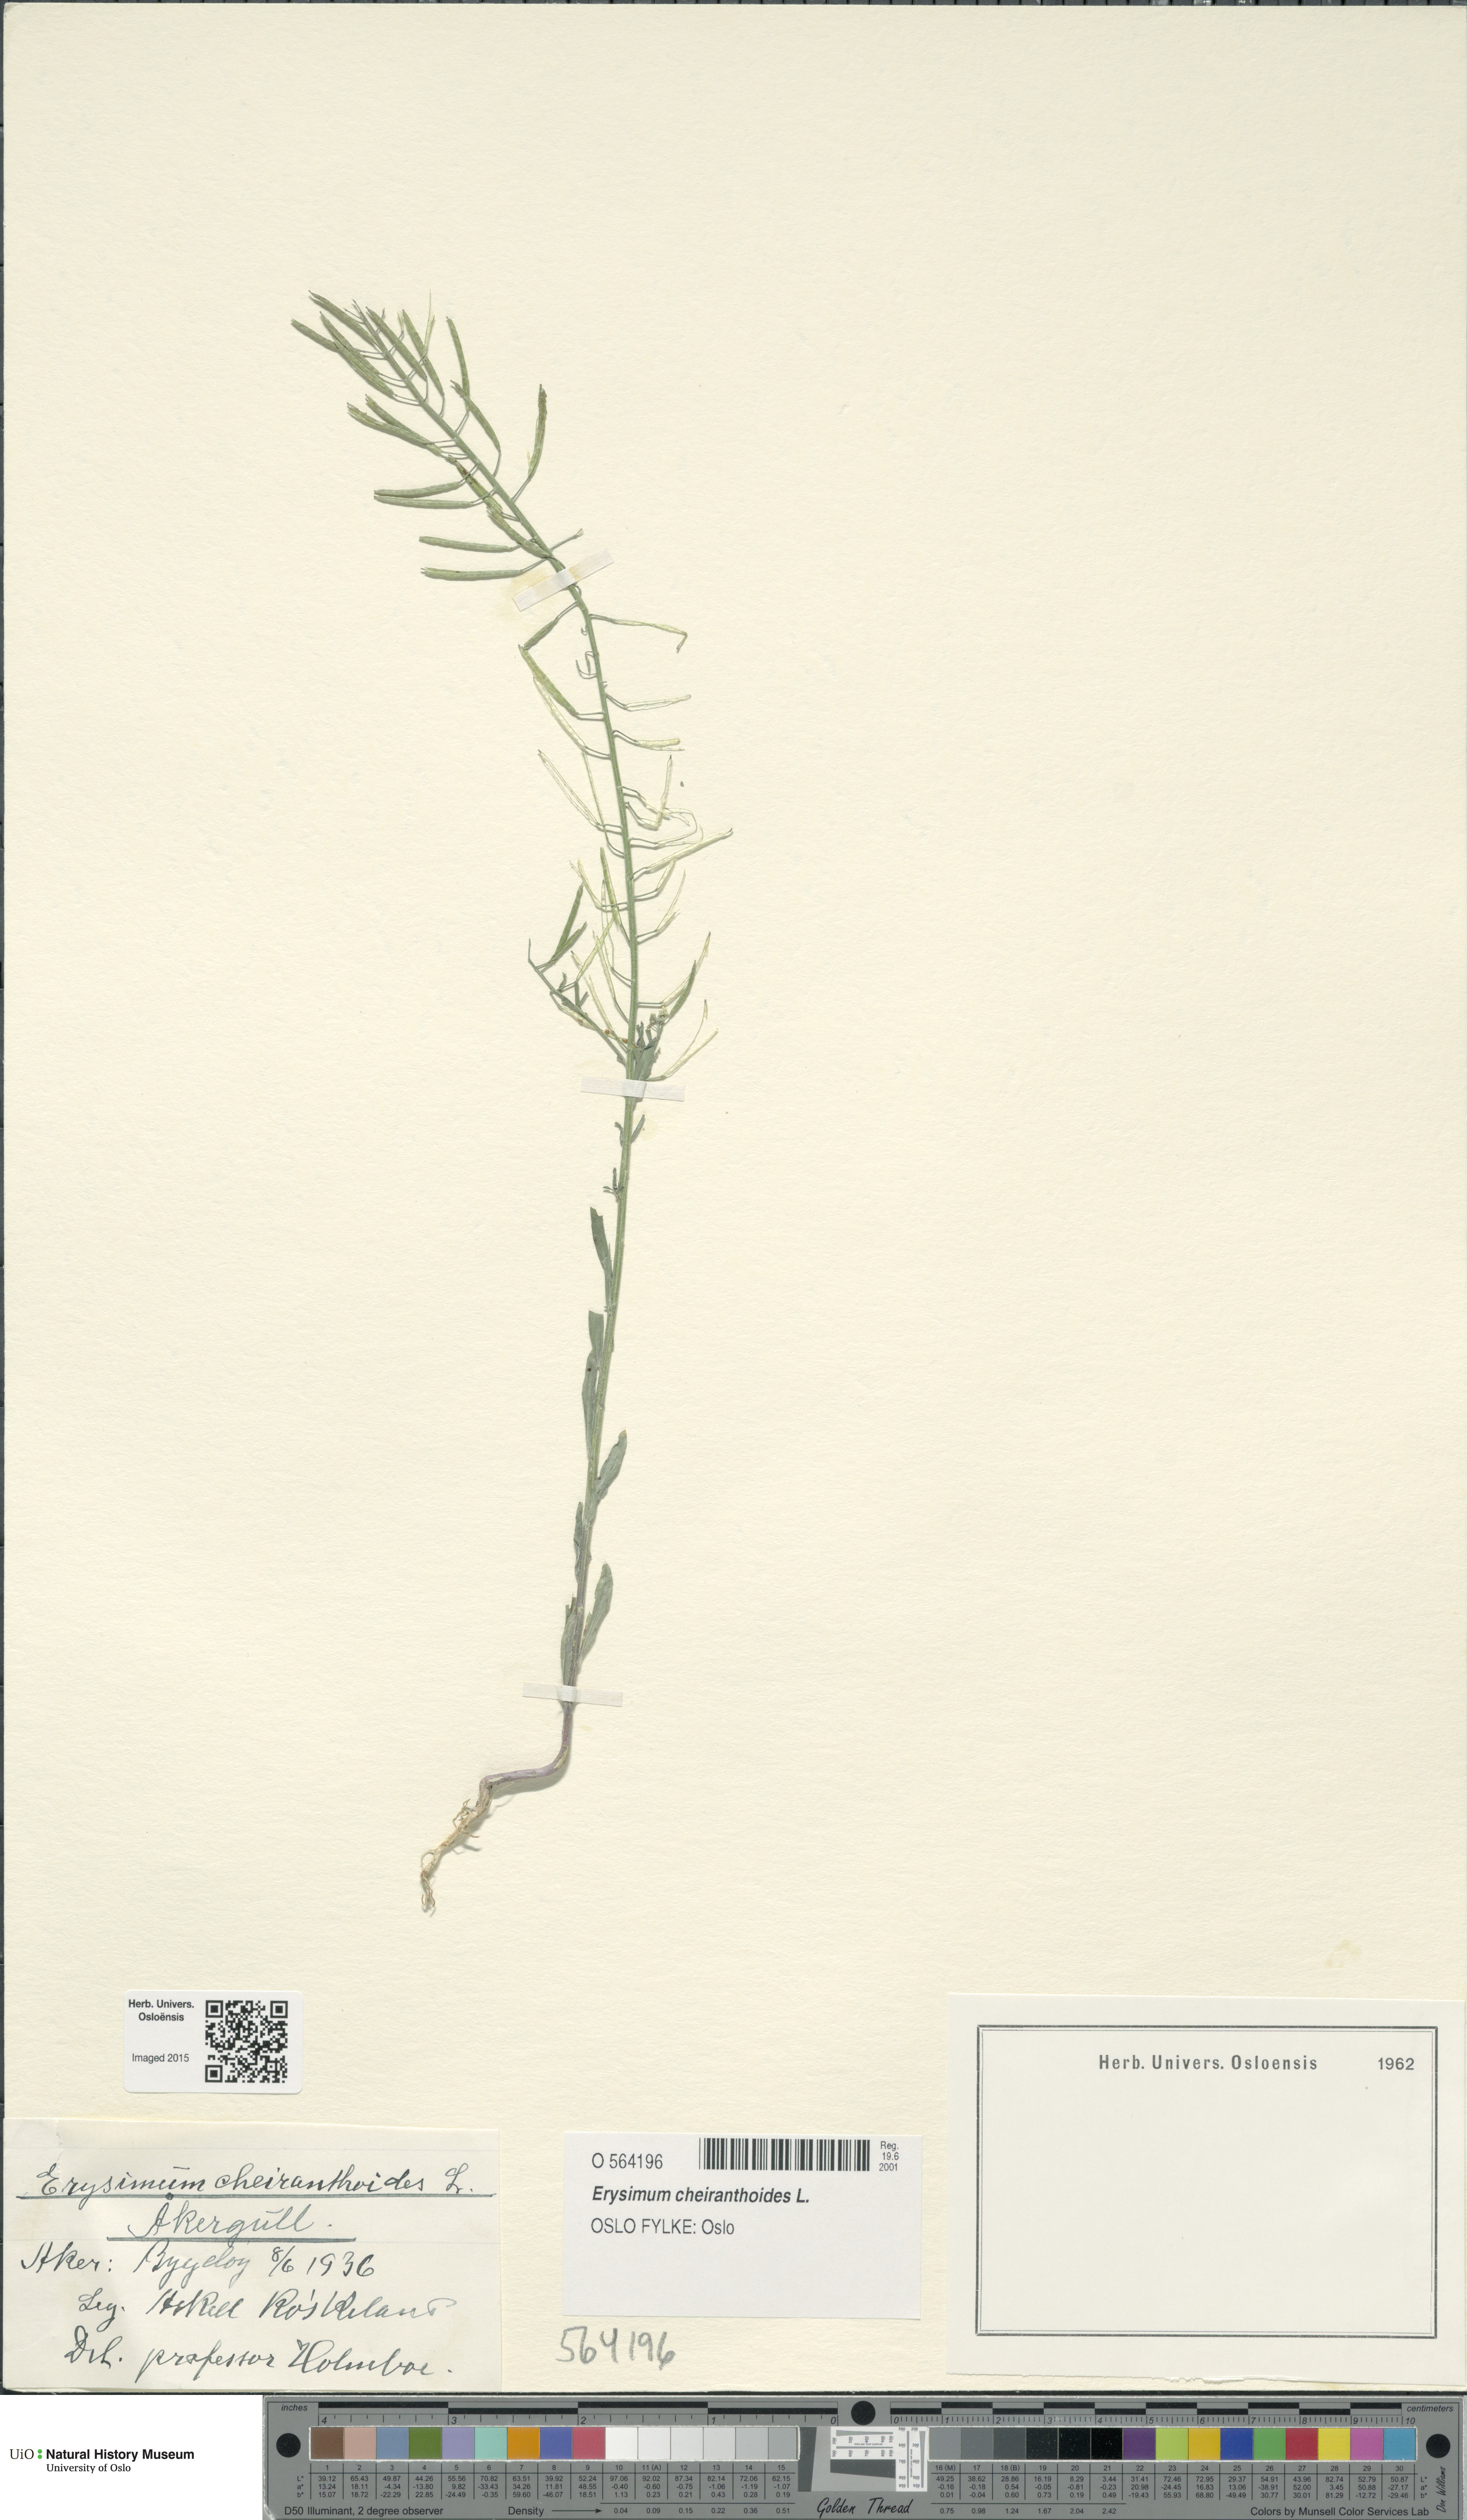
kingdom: Plantae
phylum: Tracheophyta
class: Magnoliopsida
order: Brassicales
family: Brassicaceae
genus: Erysimum
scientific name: Erysimum cheiranthoides
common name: Treacle mustard
